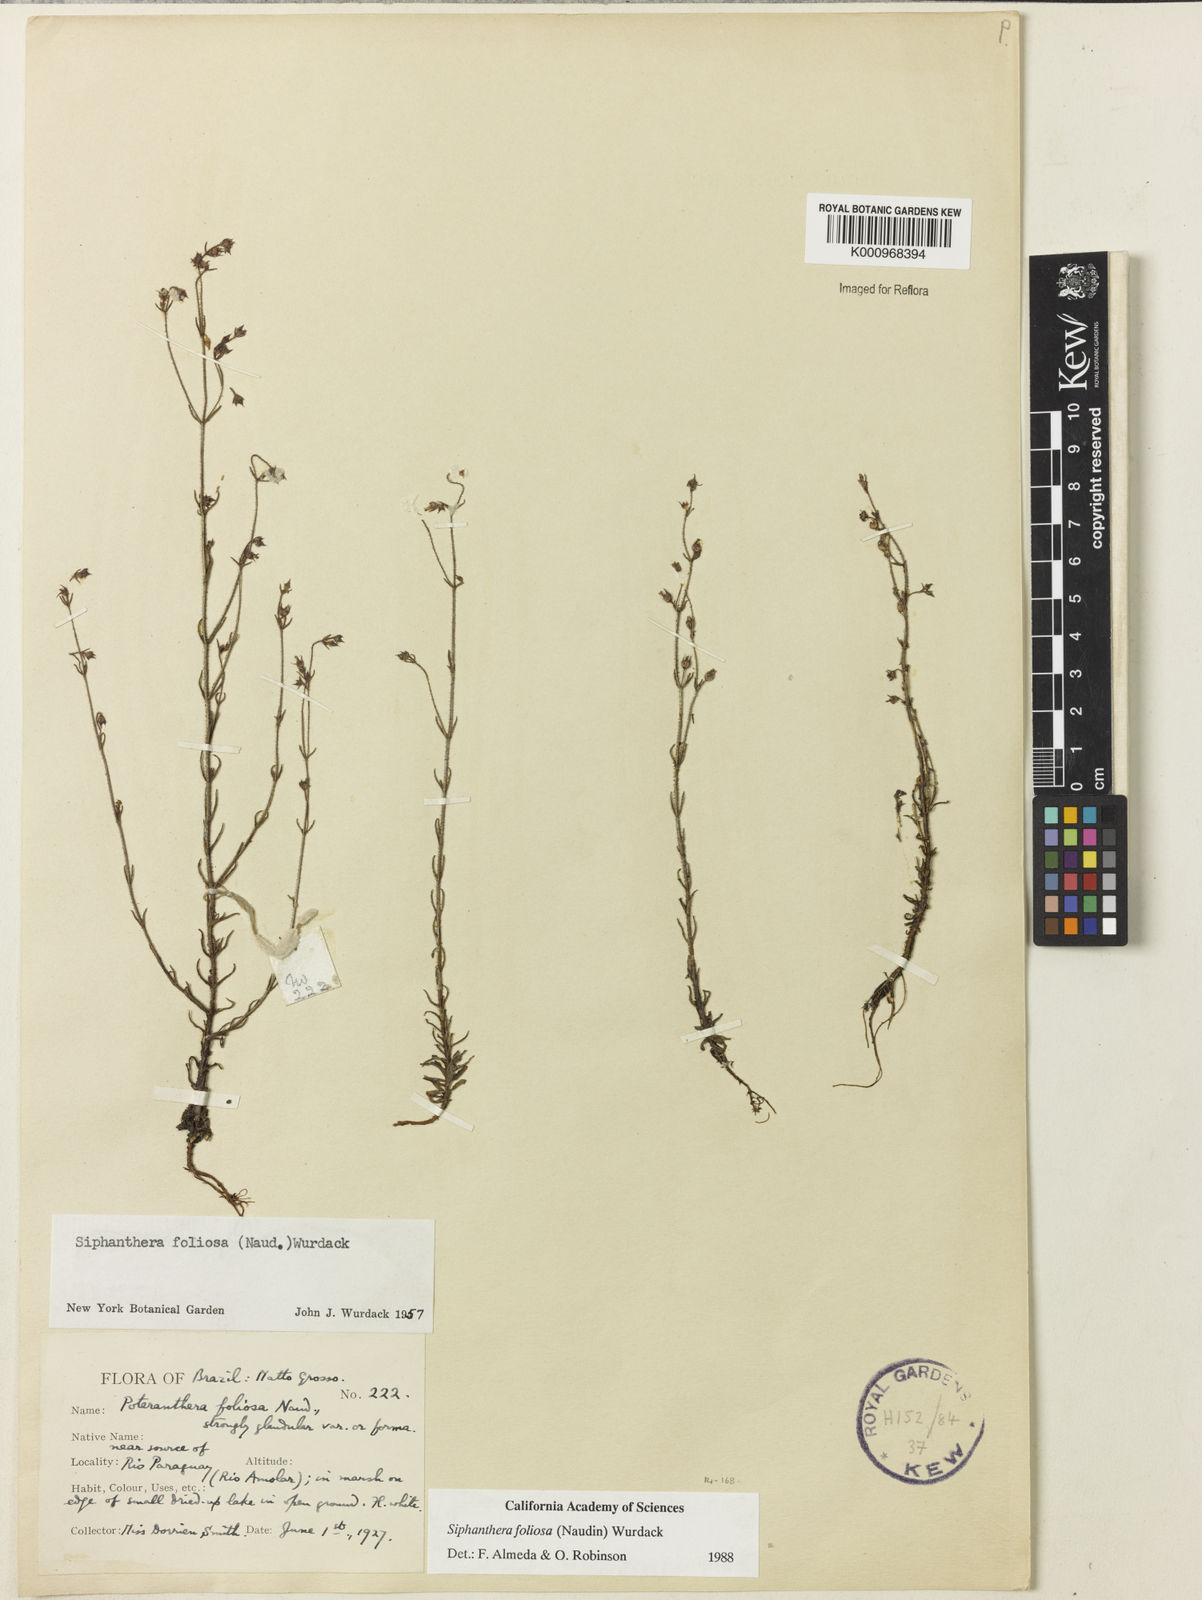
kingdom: Plantae
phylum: Tracheophyta
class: Magnoliopsida
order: Myrtales
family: Melastomataceae
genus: Siphanthera
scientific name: Siphanthera foliosa
